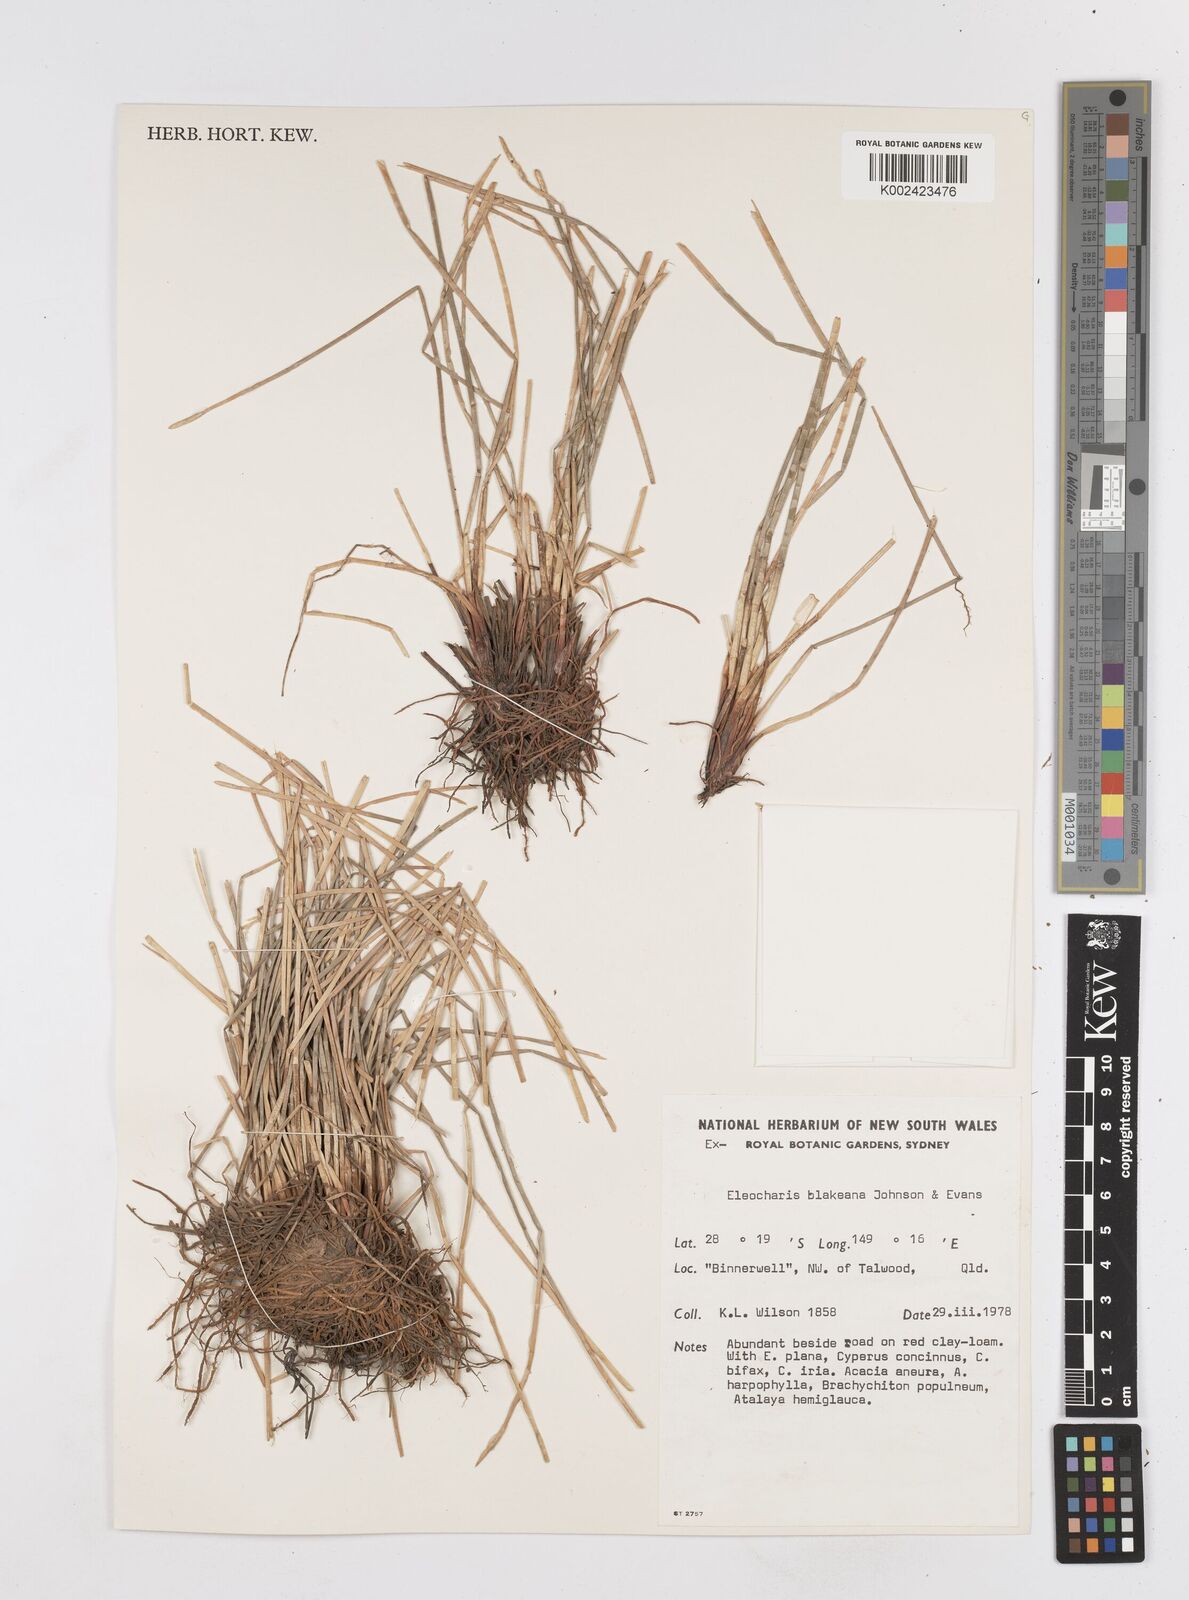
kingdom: Plantae
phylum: Tracheophyta
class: Liliopsida
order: Poales
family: Cyperaceae
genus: Eleocharis
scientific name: Eleocharis blakeana
